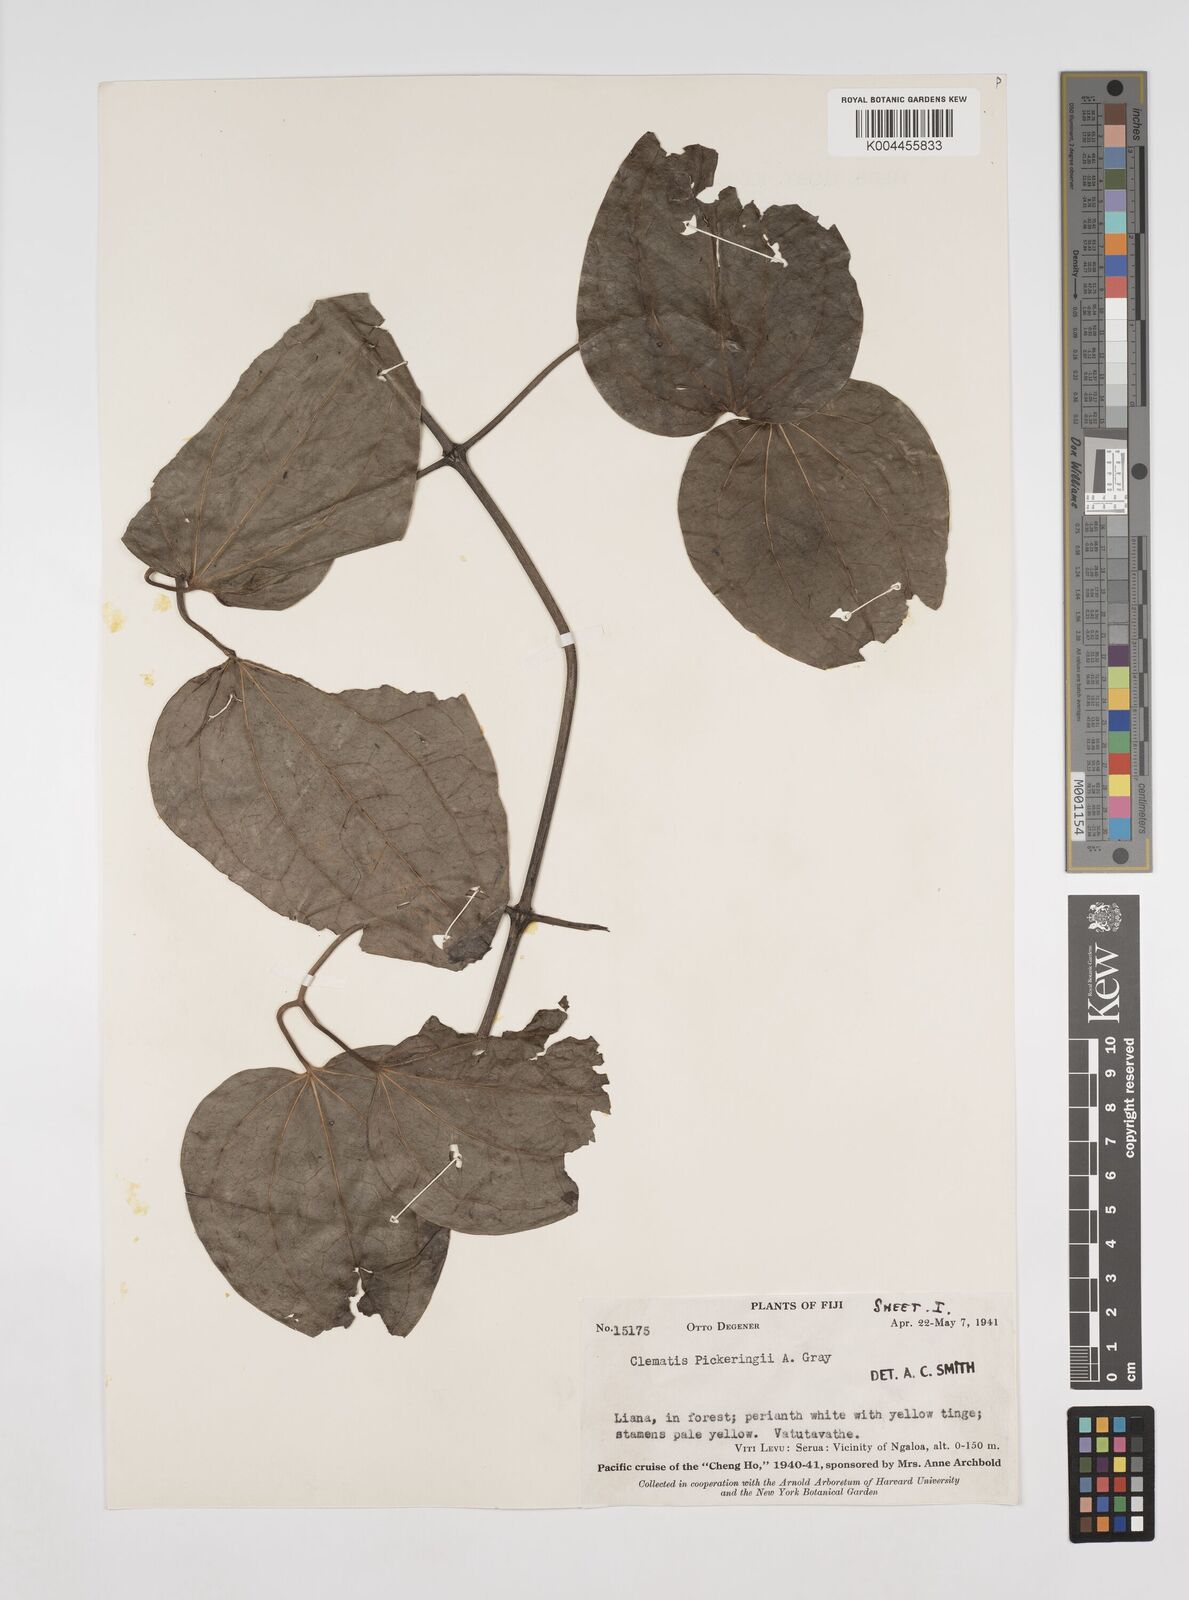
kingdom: Plantae
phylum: Tracheophyta
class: Magnoliopsida
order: Ranunculales
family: Ranunculaceae
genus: Clematis
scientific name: Clematis pickeringii
